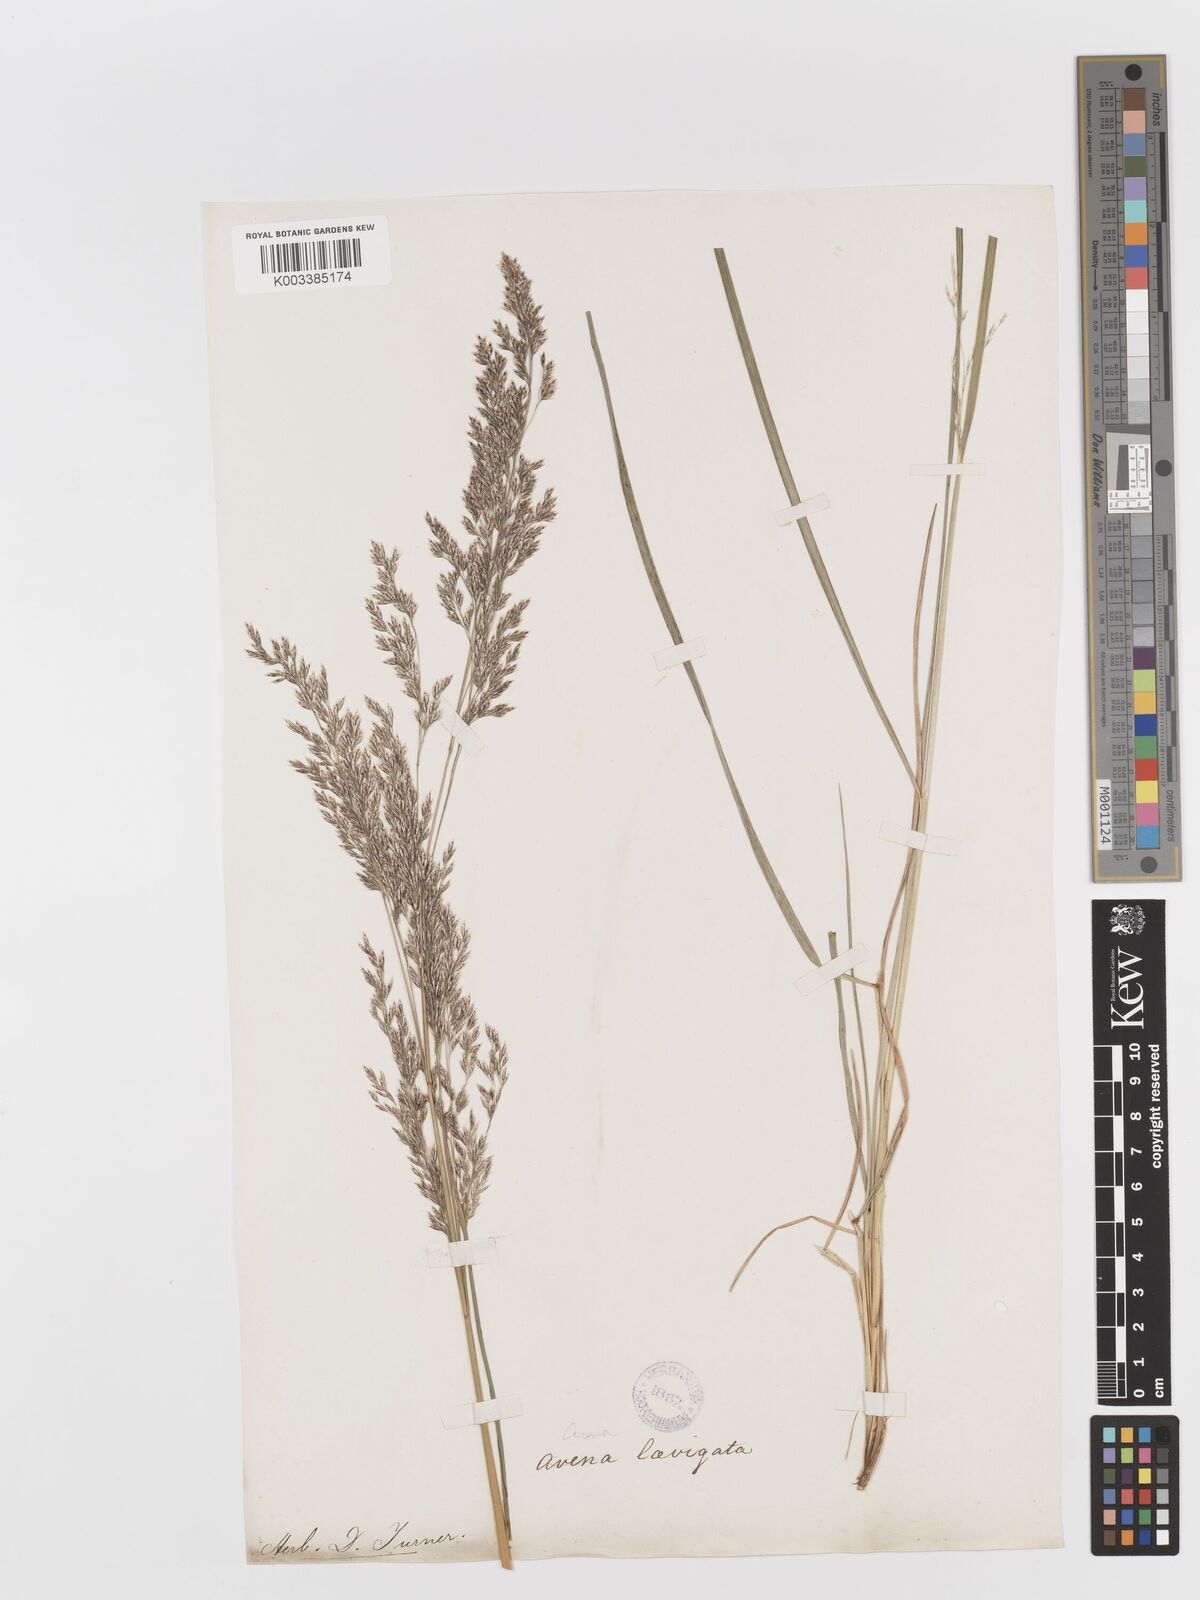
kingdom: Plantae
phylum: Tracheophyta
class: Liliopsida
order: Poales
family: Poaceae
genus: Deschampsia
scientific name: Deschampsia cespitosa
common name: Tufted hair-grass
